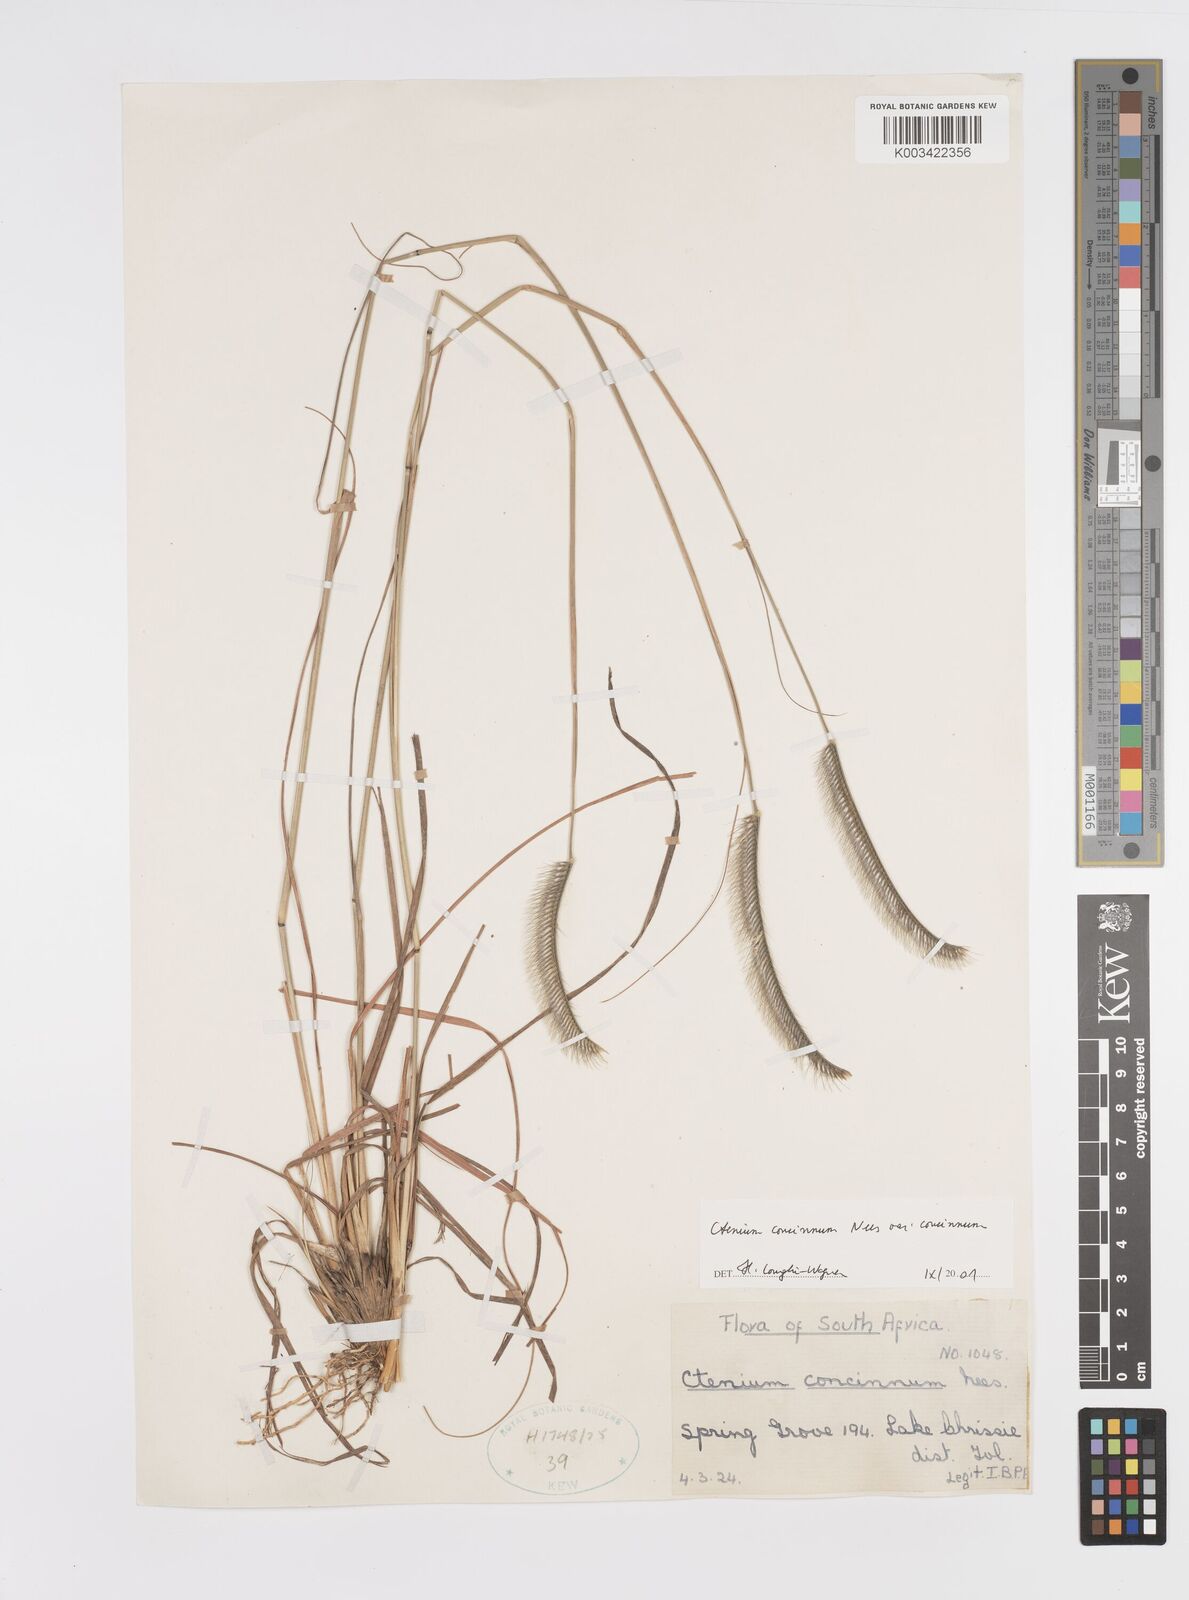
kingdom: Plantae
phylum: Tracheophyta
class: Liliopsida
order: Poales
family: Poaceae
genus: Ctenium
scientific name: Ctenium concinnum
